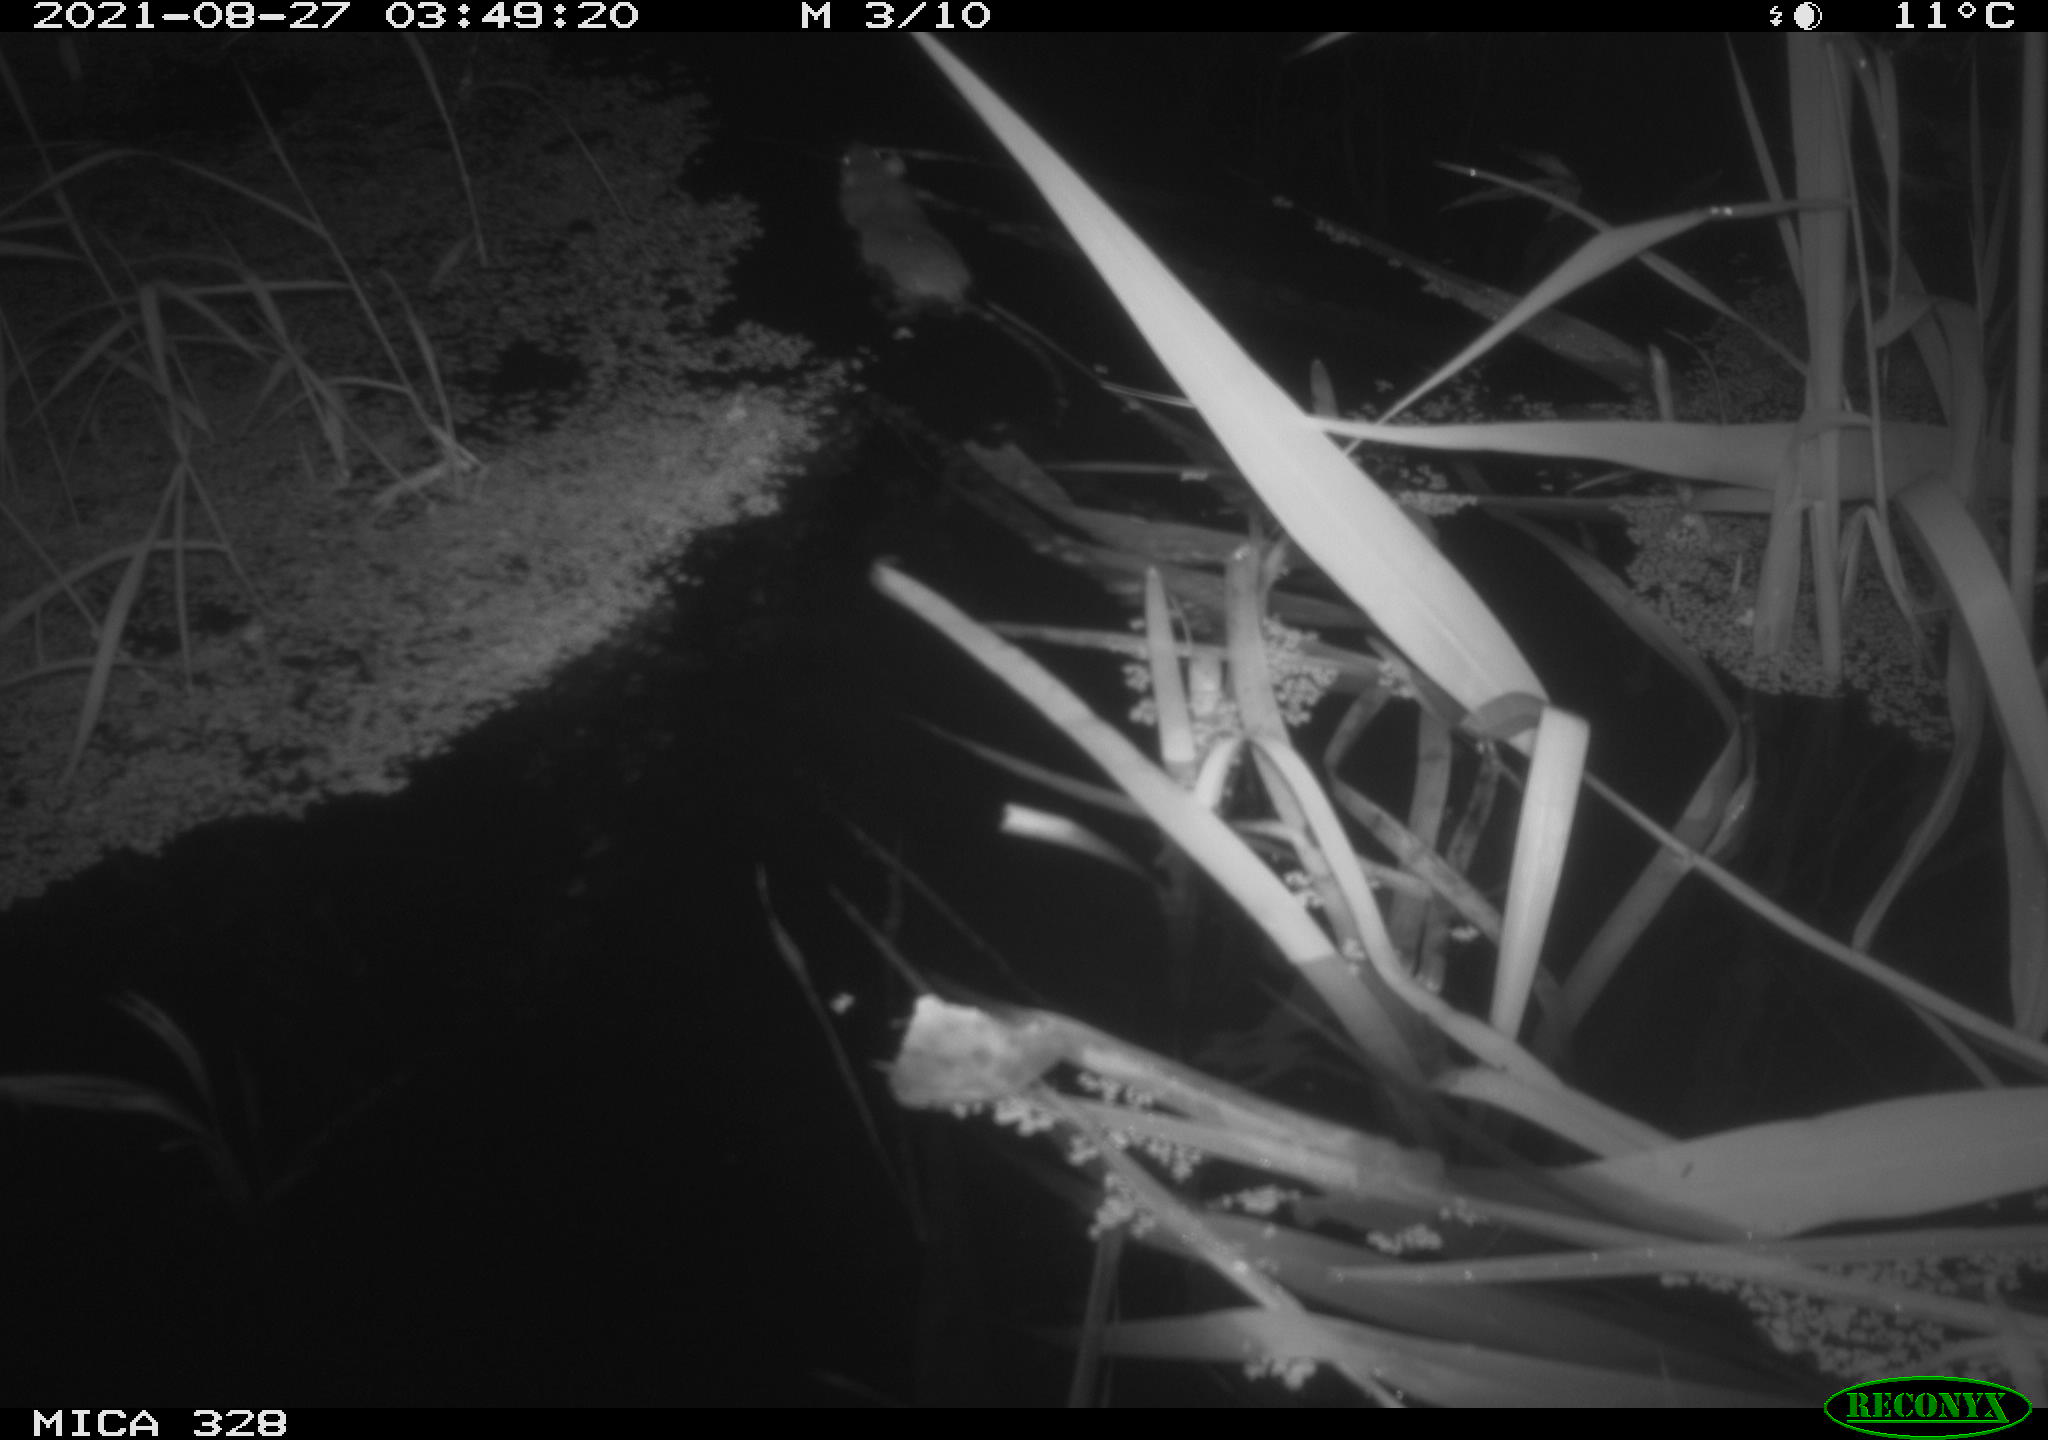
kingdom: Animalia
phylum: Chordata
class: Mammalia
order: Rodentia
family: Muridae
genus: Rattus
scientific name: Rattus norvegicus
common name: Brown rat
